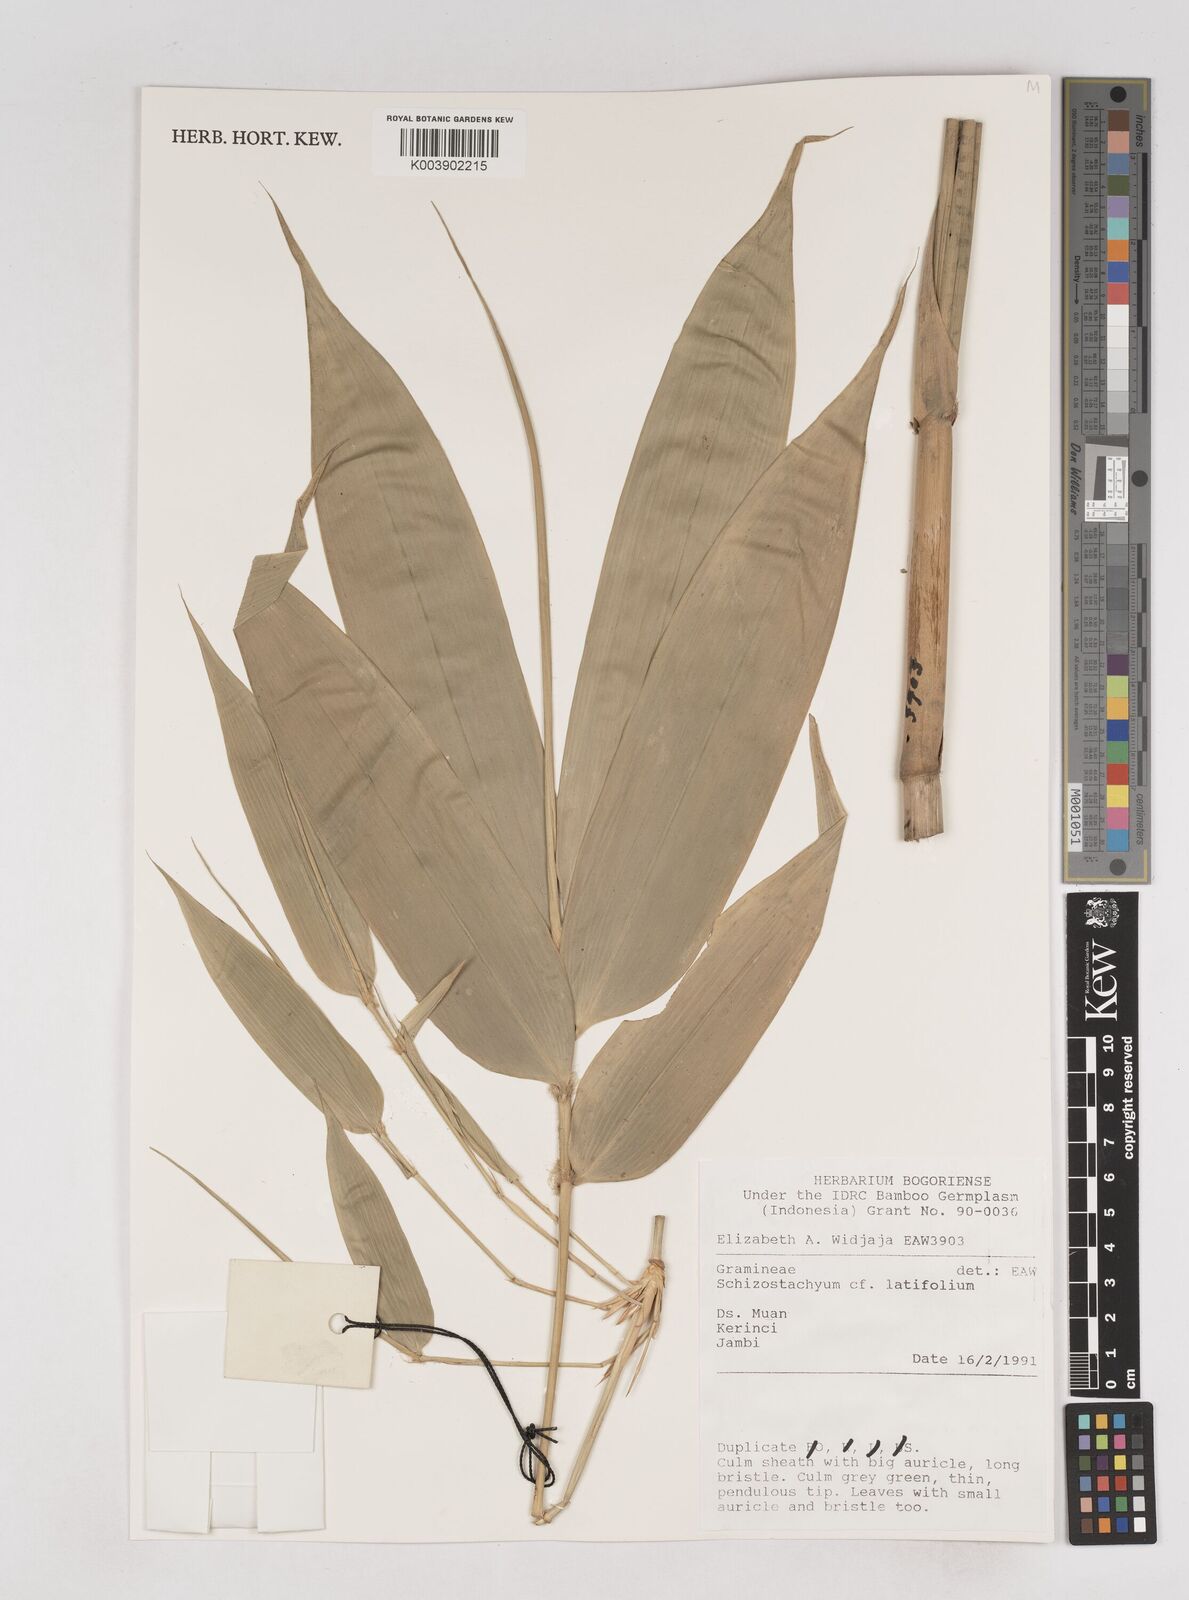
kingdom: Plantae
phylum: Tracheophyta
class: Liliopsida
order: Poales
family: Poaceae
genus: Schizostachyum
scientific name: Schizostachyum latifolium
